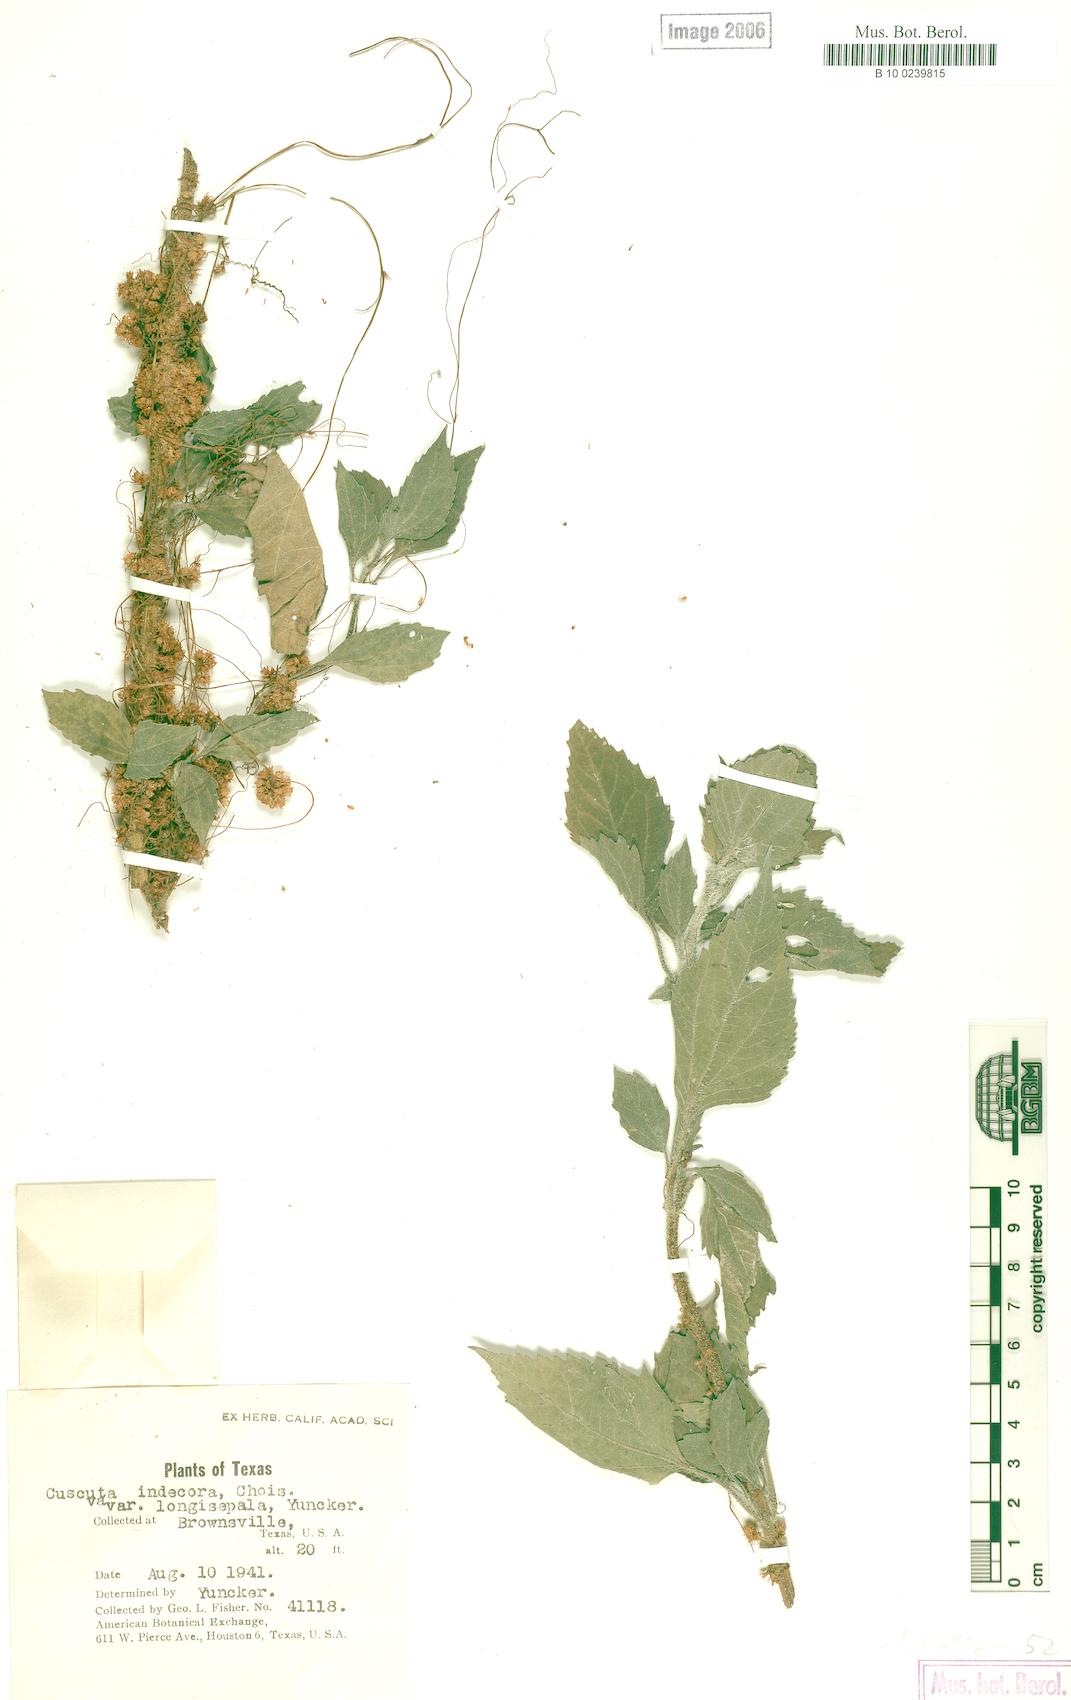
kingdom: Plantae
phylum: Tracheophyta
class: Magnoliopsida
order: Solanales
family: Convolvulaceae
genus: Cuscuta
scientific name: Cuscuta indecora
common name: Large-seed dodder
